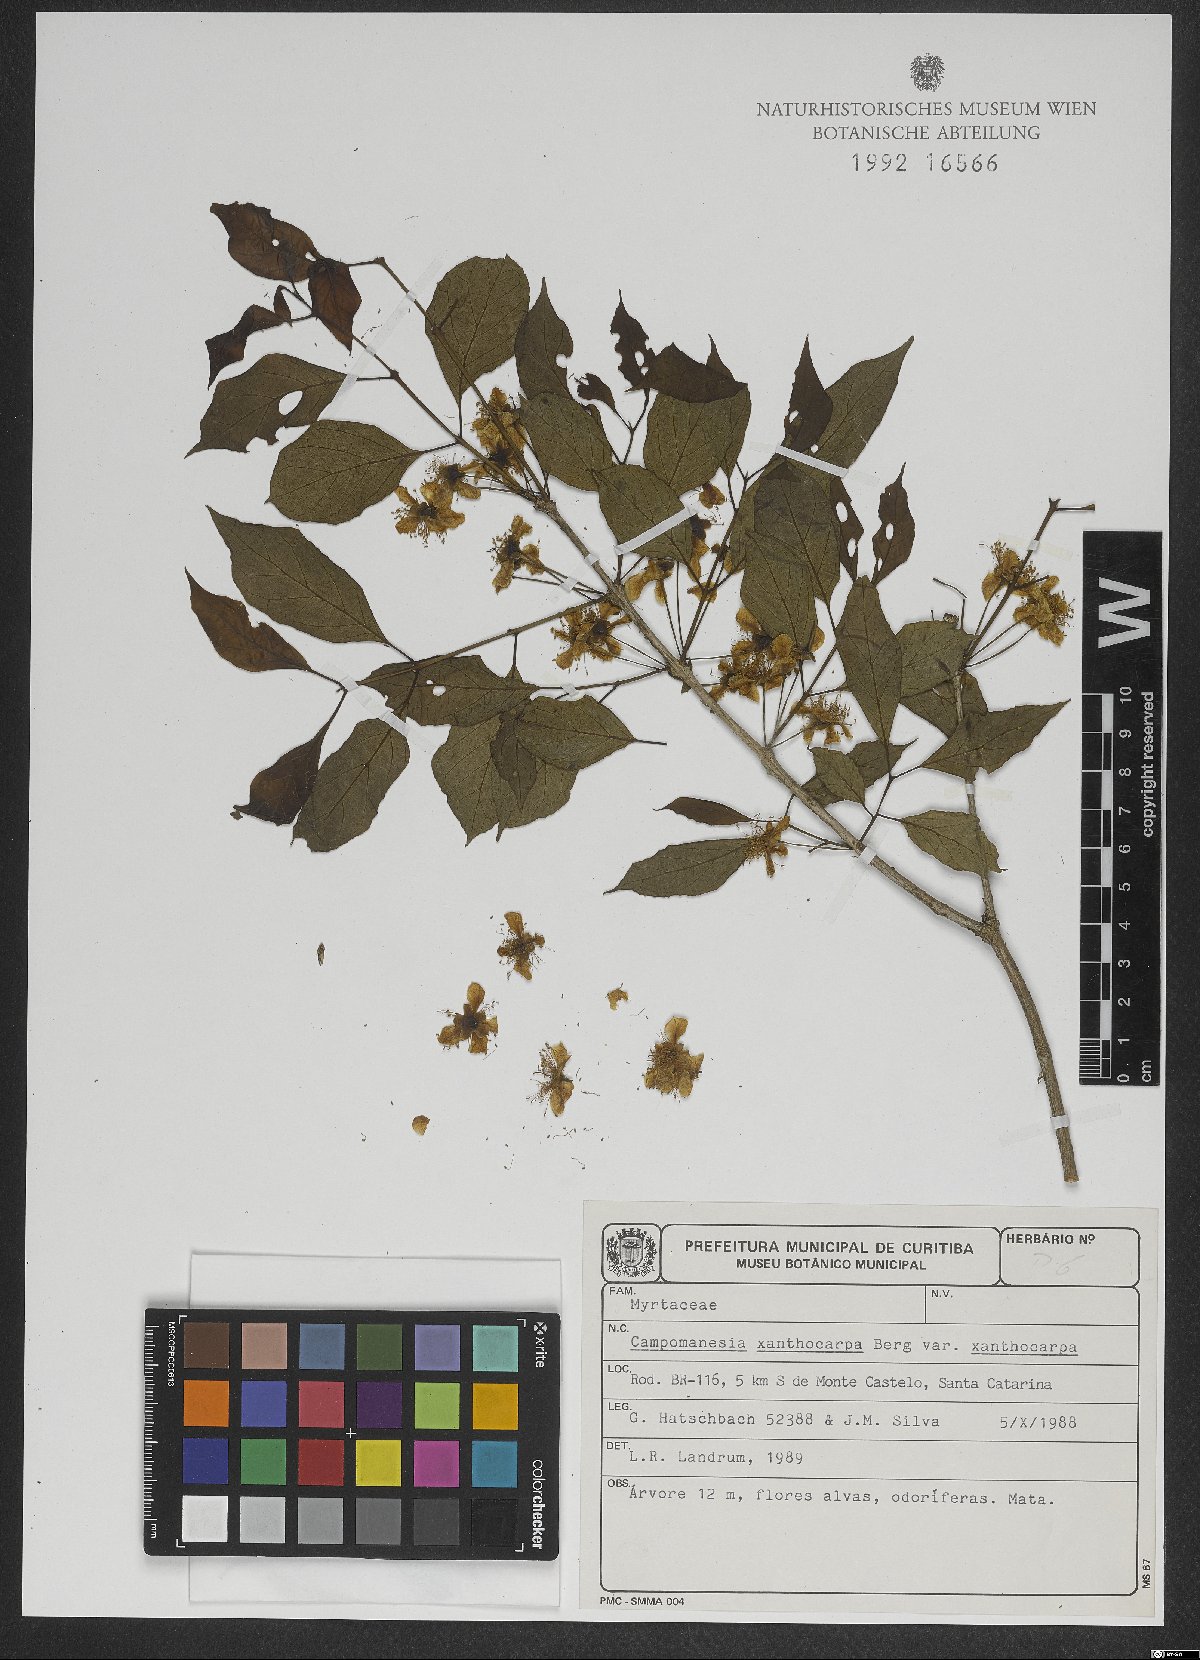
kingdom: Plantae
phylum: Tracheophyta
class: Magnoliopsida
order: Myrtales
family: Myrtaceae
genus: Campomanesia
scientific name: Campomanesia xanthocarpa
